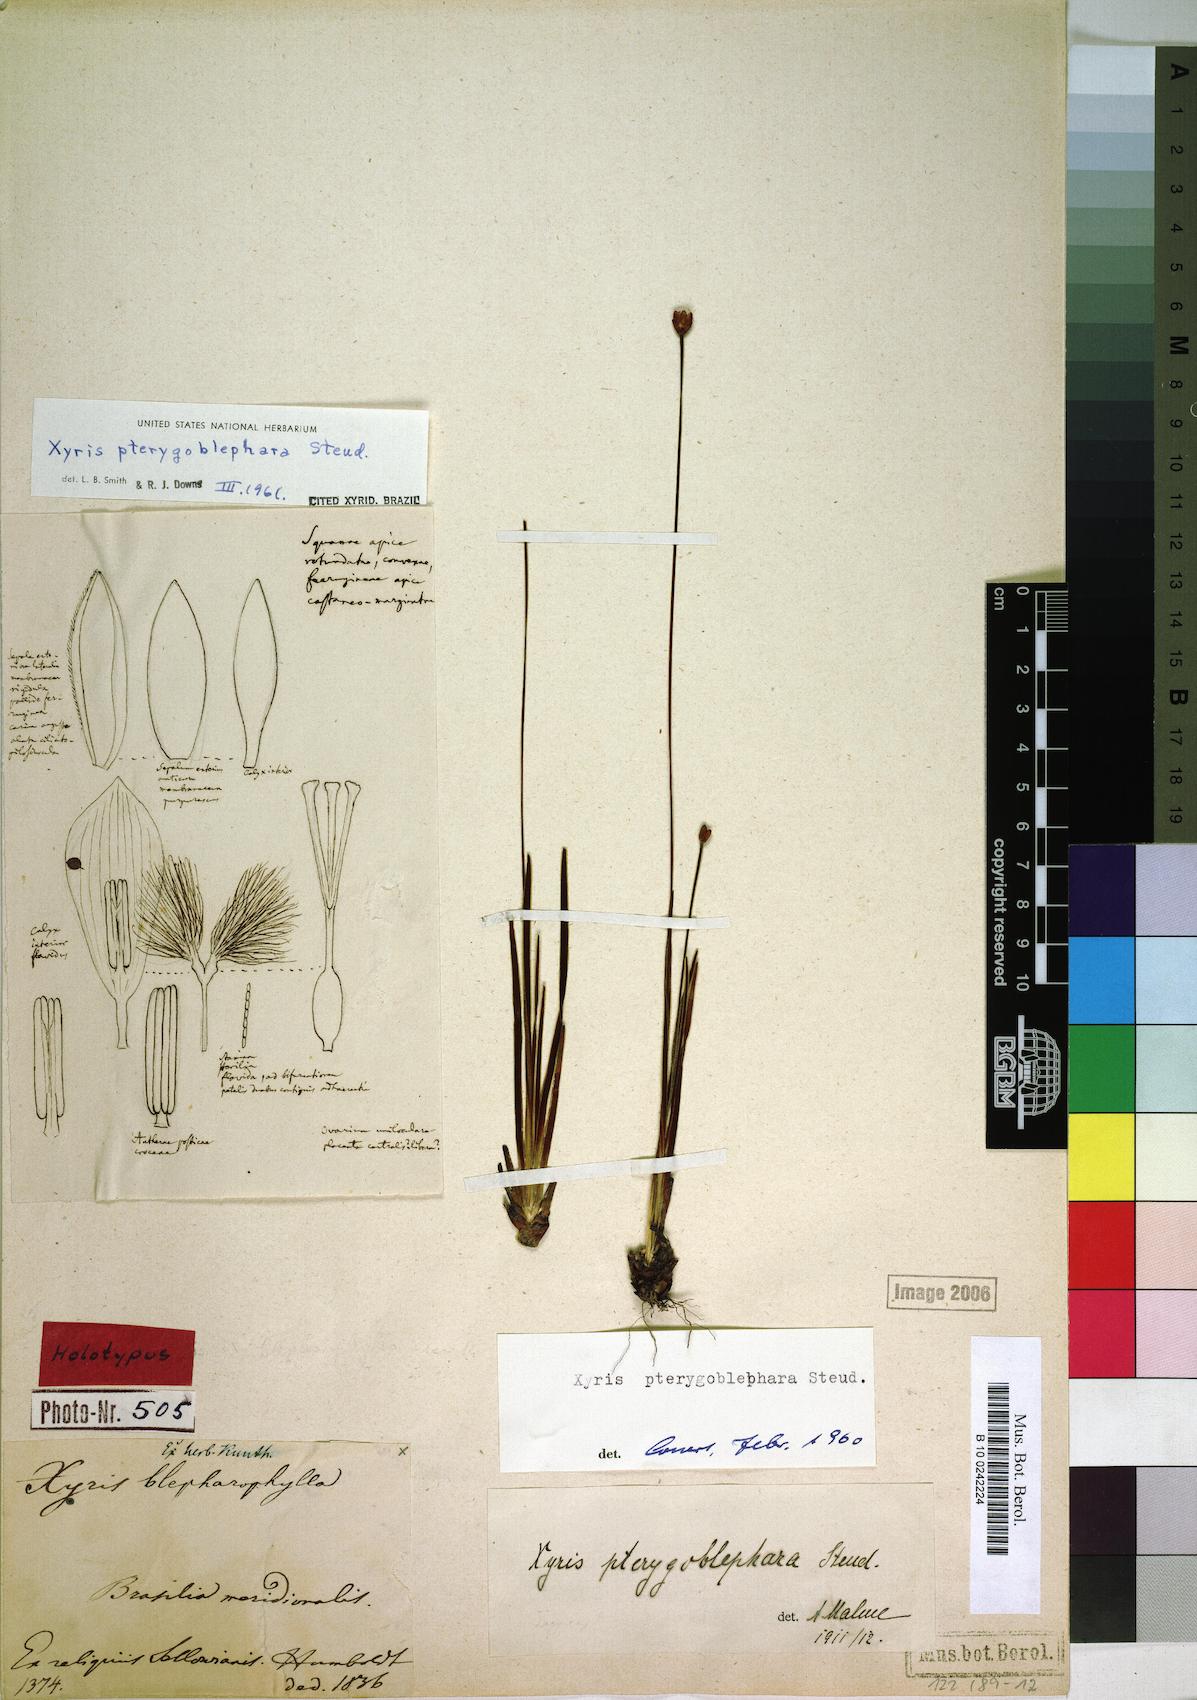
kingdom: Plantae
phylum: Tracheophyta
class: Liliopsida
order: Poales
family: Xyridaceae
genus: Xyris
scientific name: Xyris pterygoblephara
